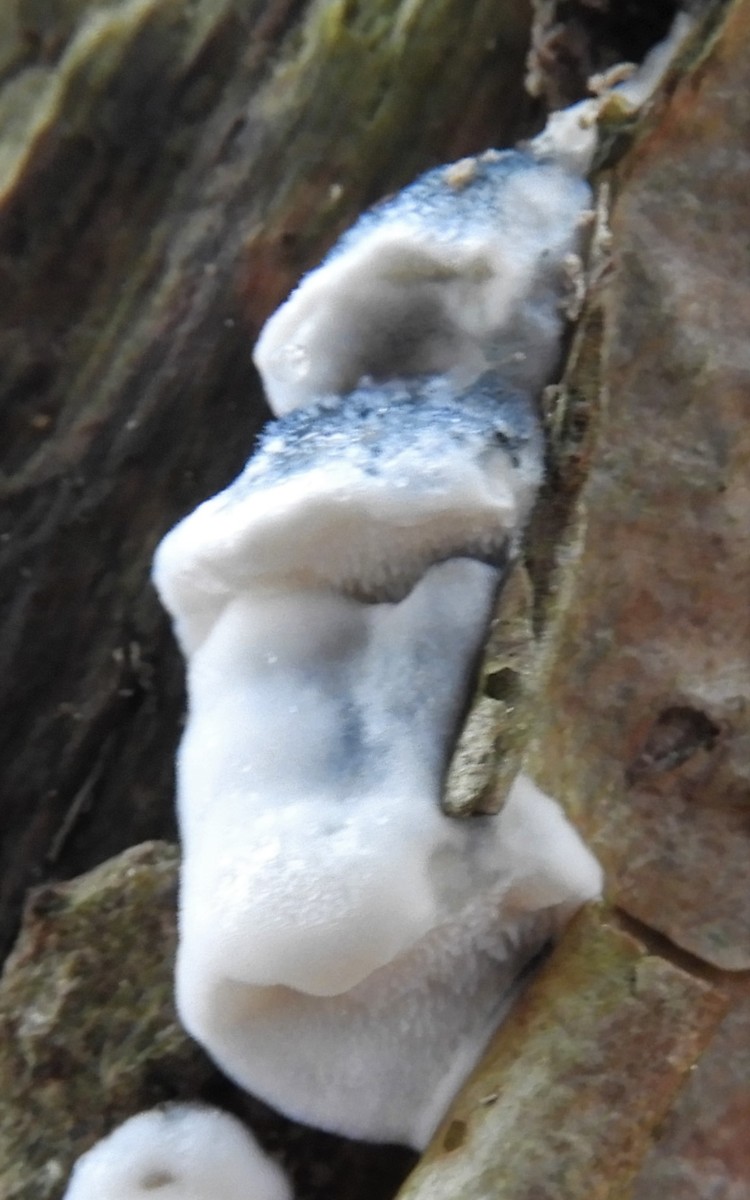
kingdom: Fungi
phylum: Basidiomycota
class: Agaricomycetes
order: Polyporales
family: Polyporaceae
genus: Cyanosporus
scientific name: Cyanosporus caesius
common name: blålig kødporesvamp
